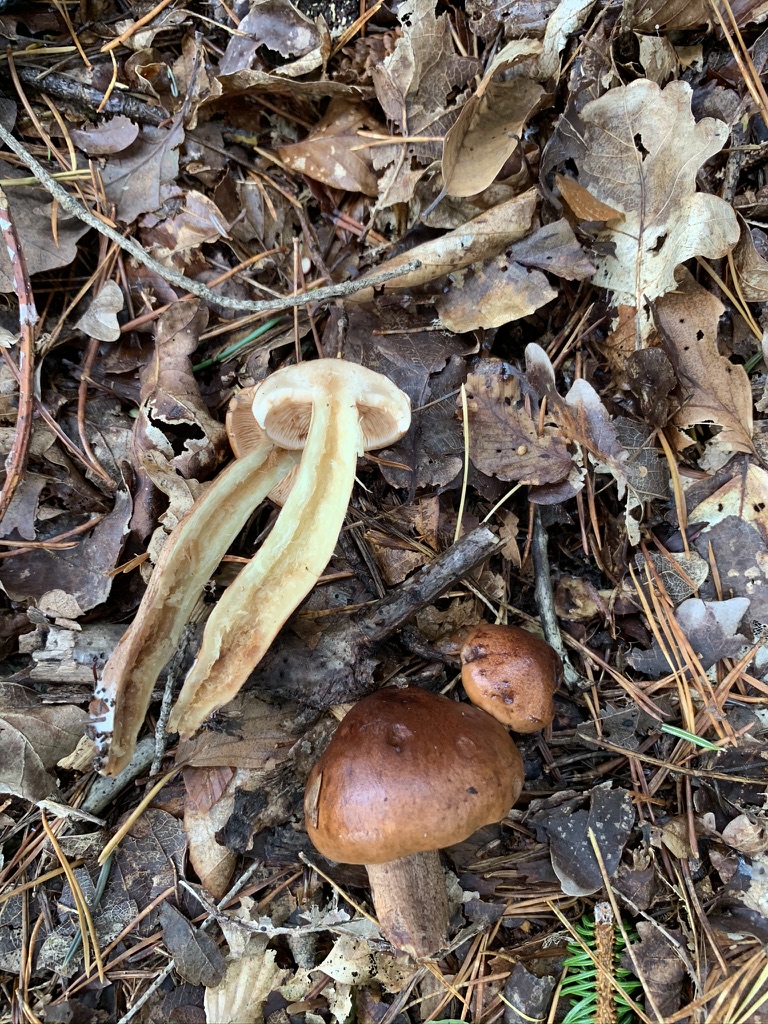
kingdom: Fungi
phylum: Basidiomycota
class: Agaricomycetes
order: Agaricales
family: Tricholomataceae
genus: Tricholoma
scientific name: Tricholoma fulvum
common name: birke-ridderhat
